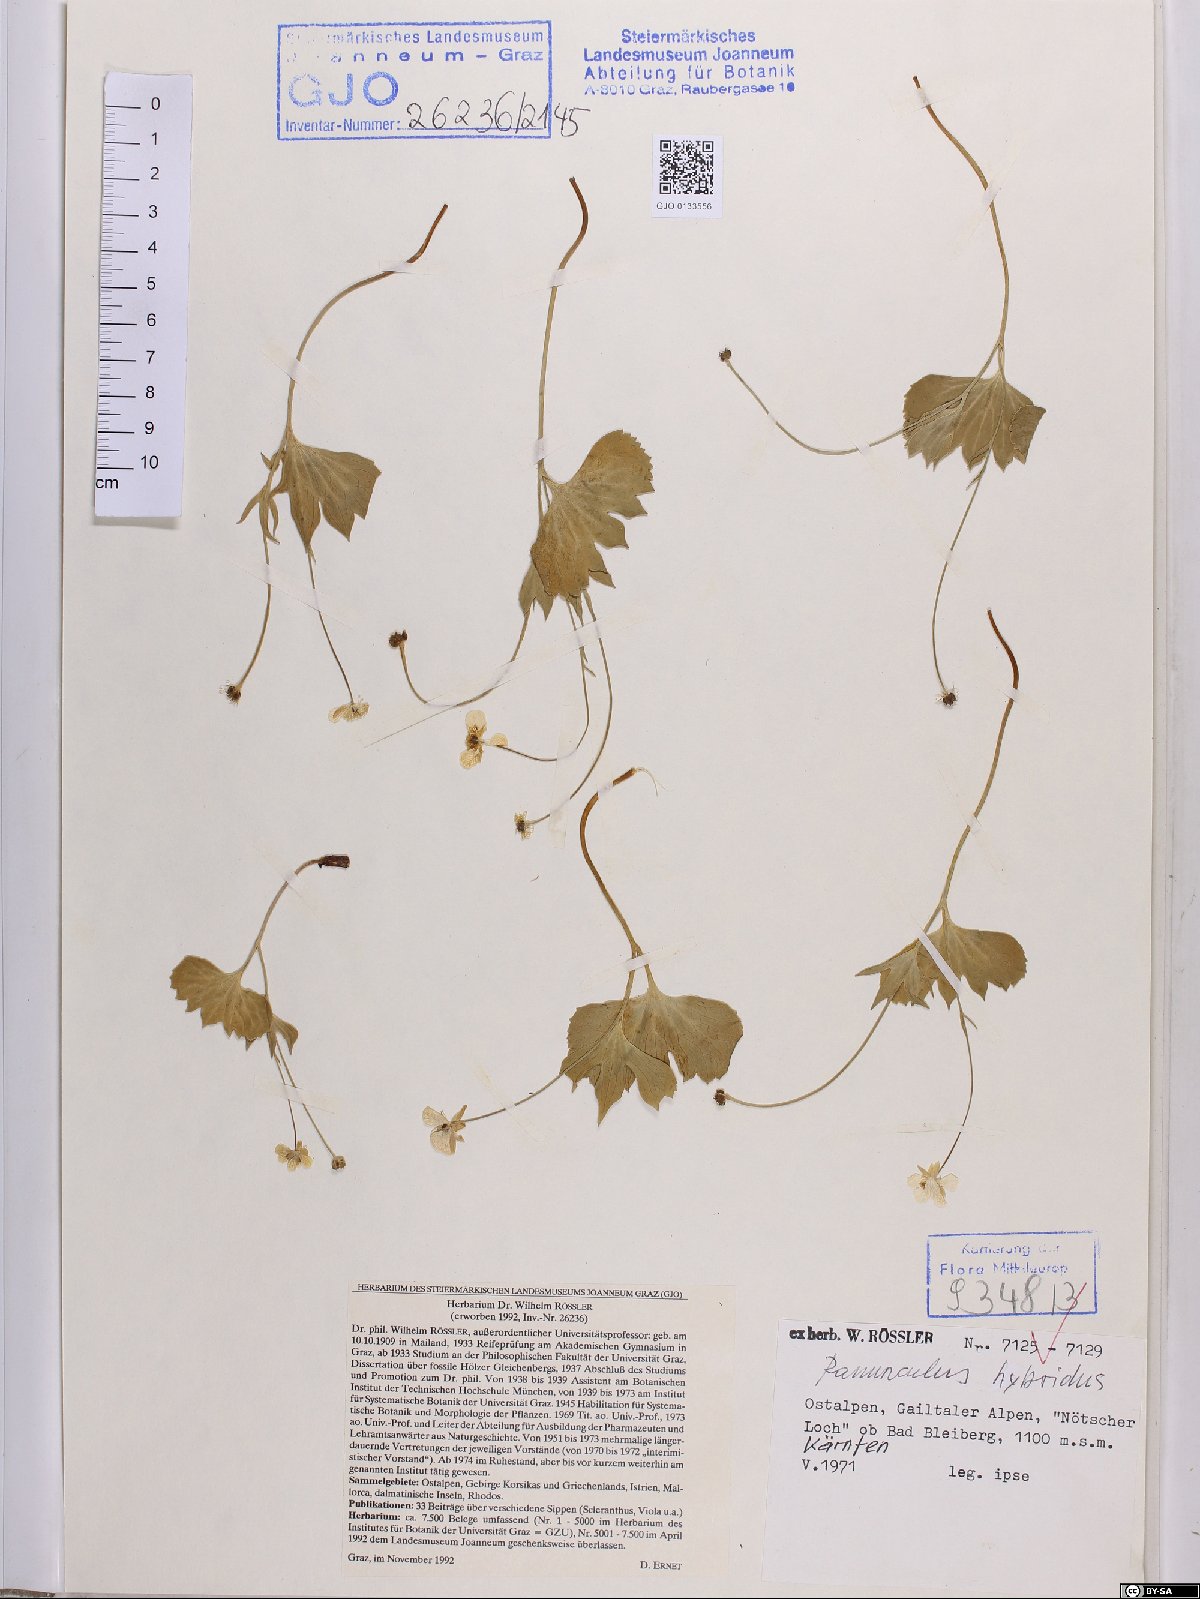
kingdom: Plantae
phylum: Tracheophyta
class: Magnoliopsida
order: Ranunculales
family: Ranunculaceae
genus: Ranunculus
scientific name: Ranunculus hybridus
